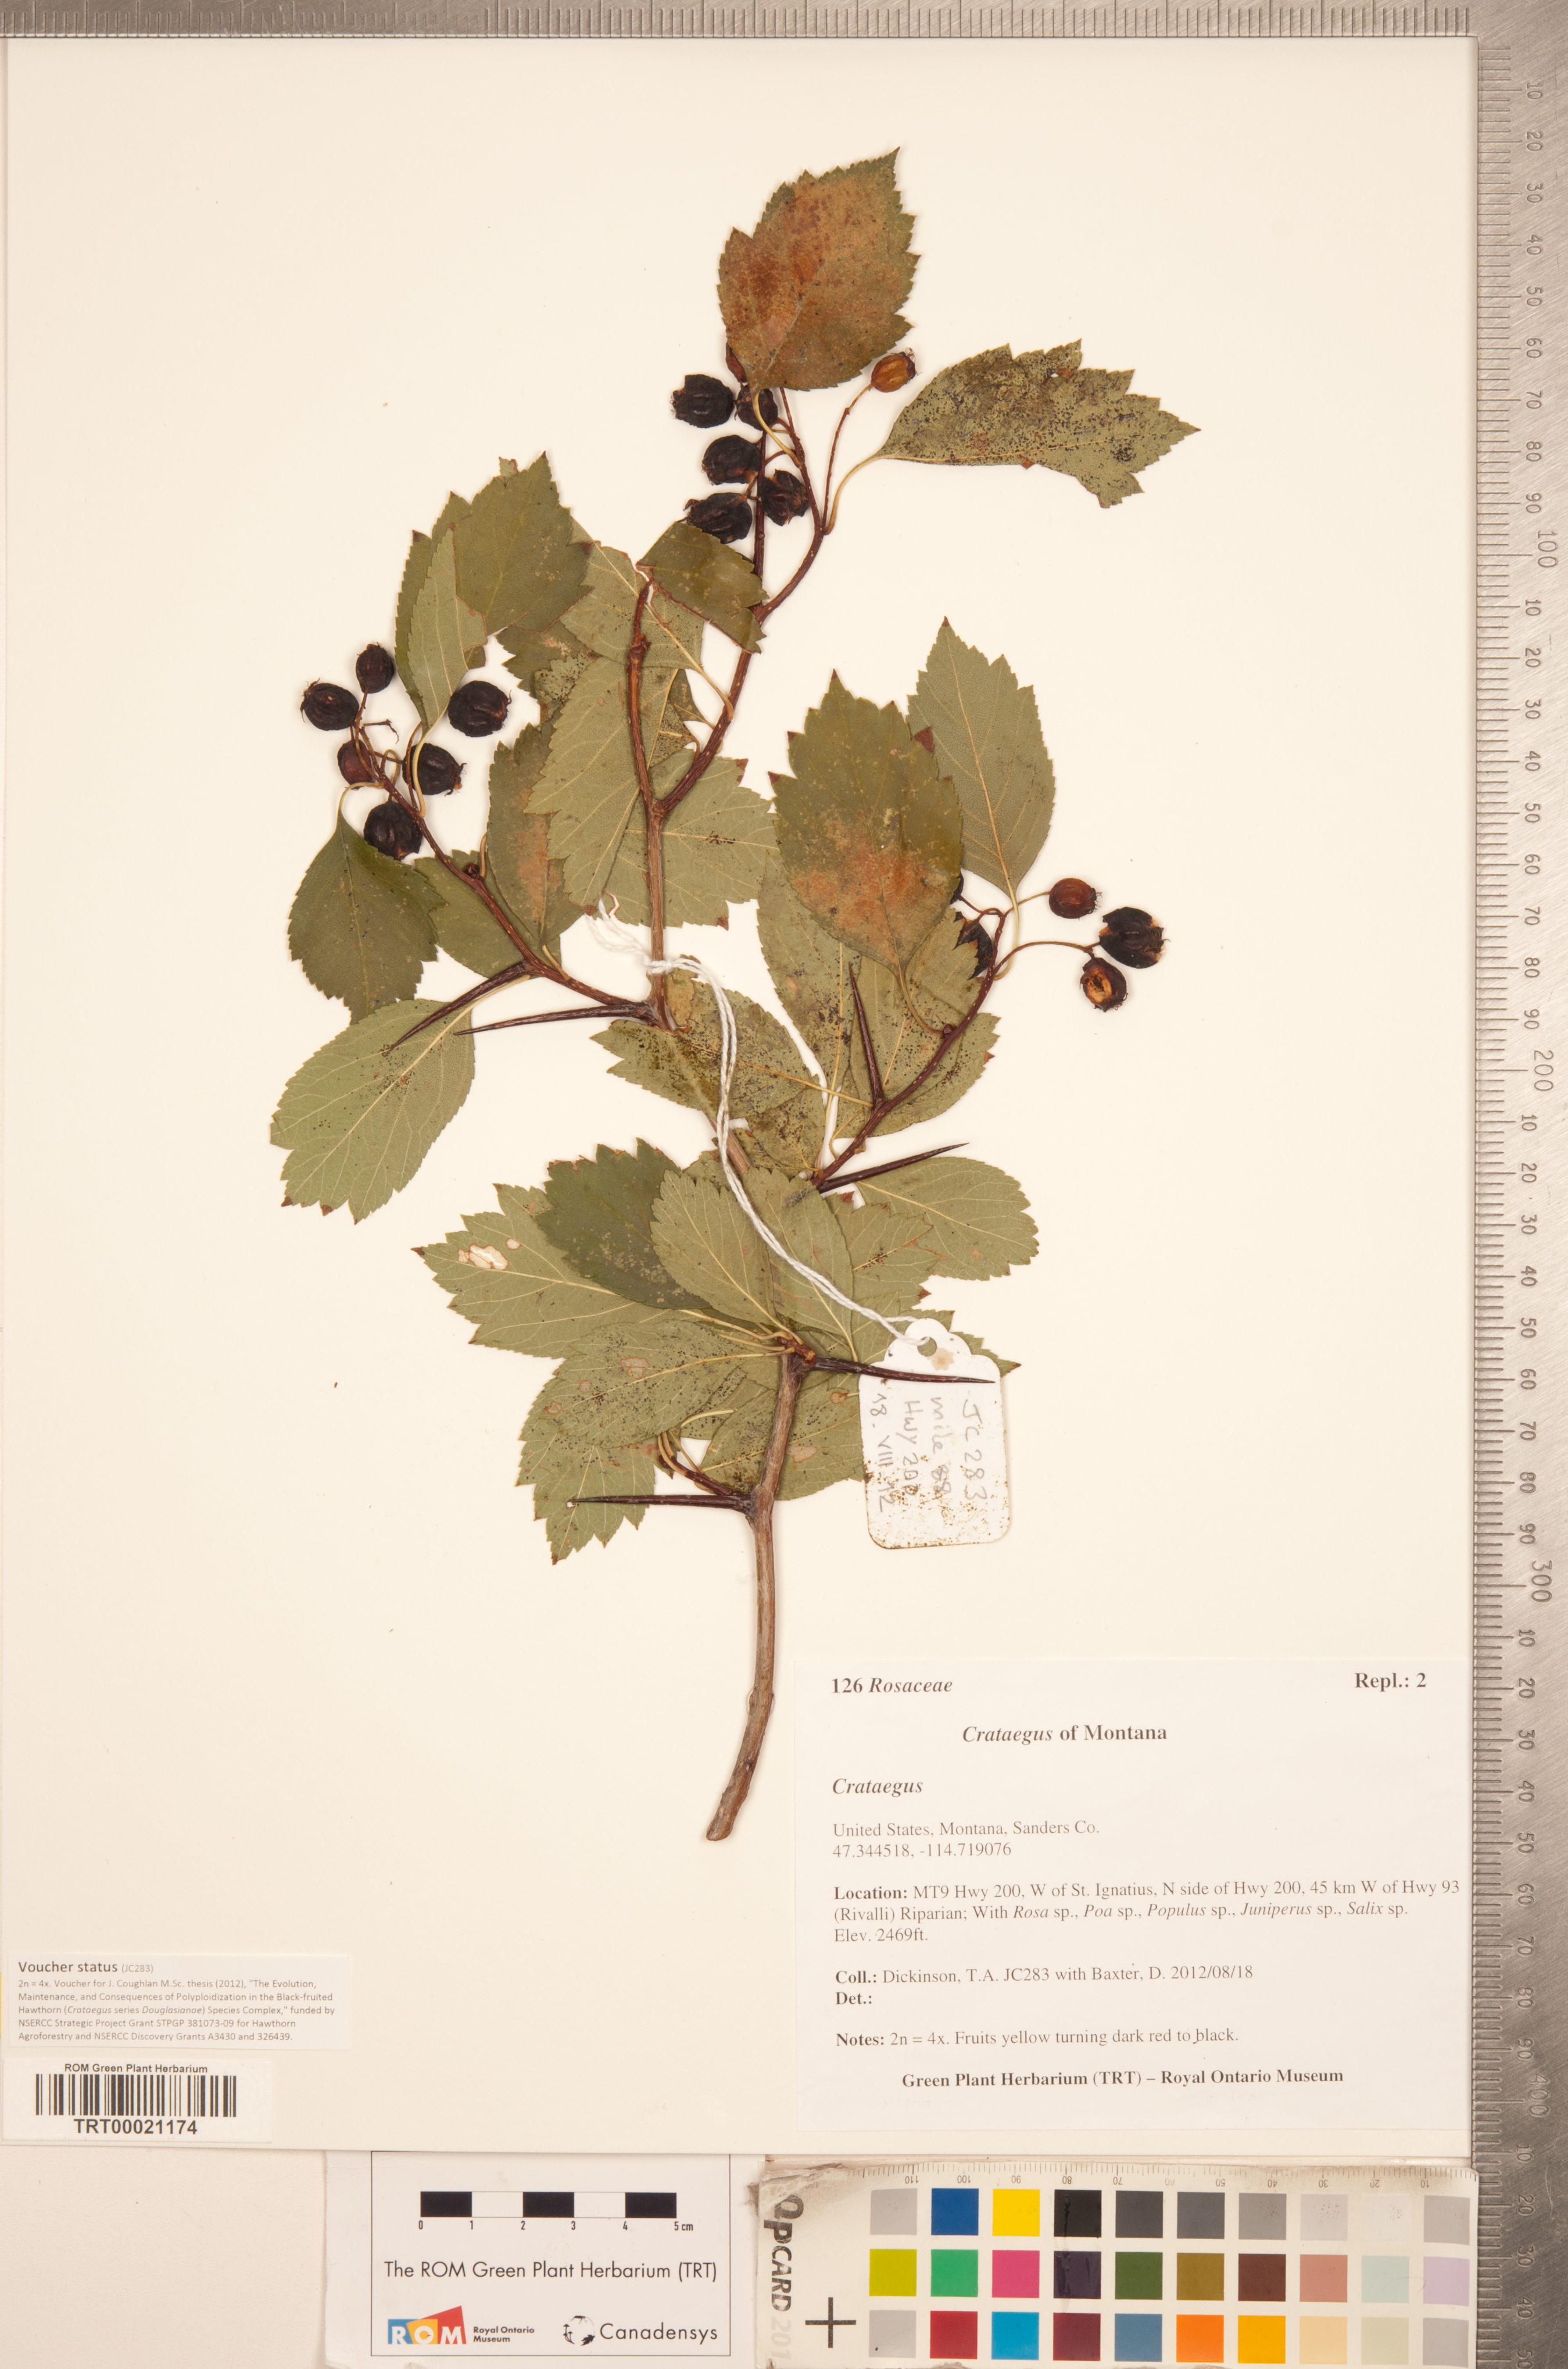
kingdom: Plantae
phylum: Tracheophyta
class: Magnoliopsida
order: Rosales
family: Rosaceae
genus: Crataegus
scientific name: Crataegus sheila-phippsiae
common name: Sheila phipps' hawthorn
